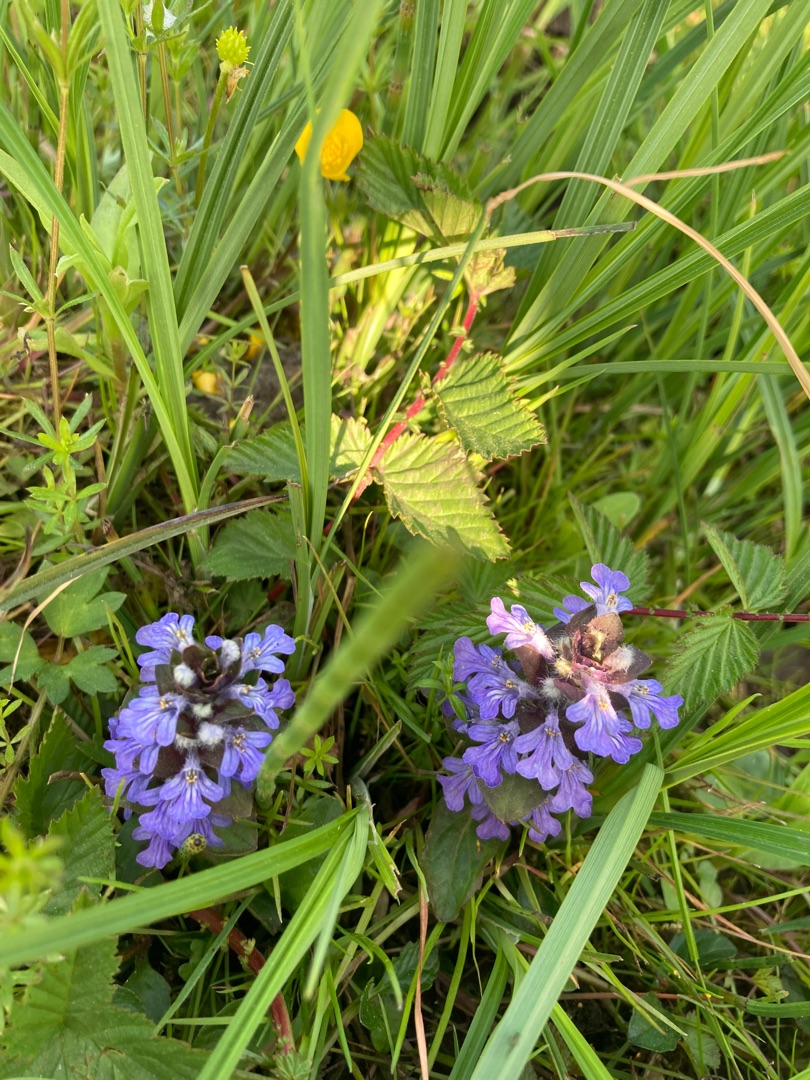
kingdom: Plantae
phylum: Tracheophyta
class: Magnoliopsida
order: Lamiales
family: Lamiaceae
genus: Ajuga
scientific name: Ajuga reptans
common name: Krybende læbeløs
